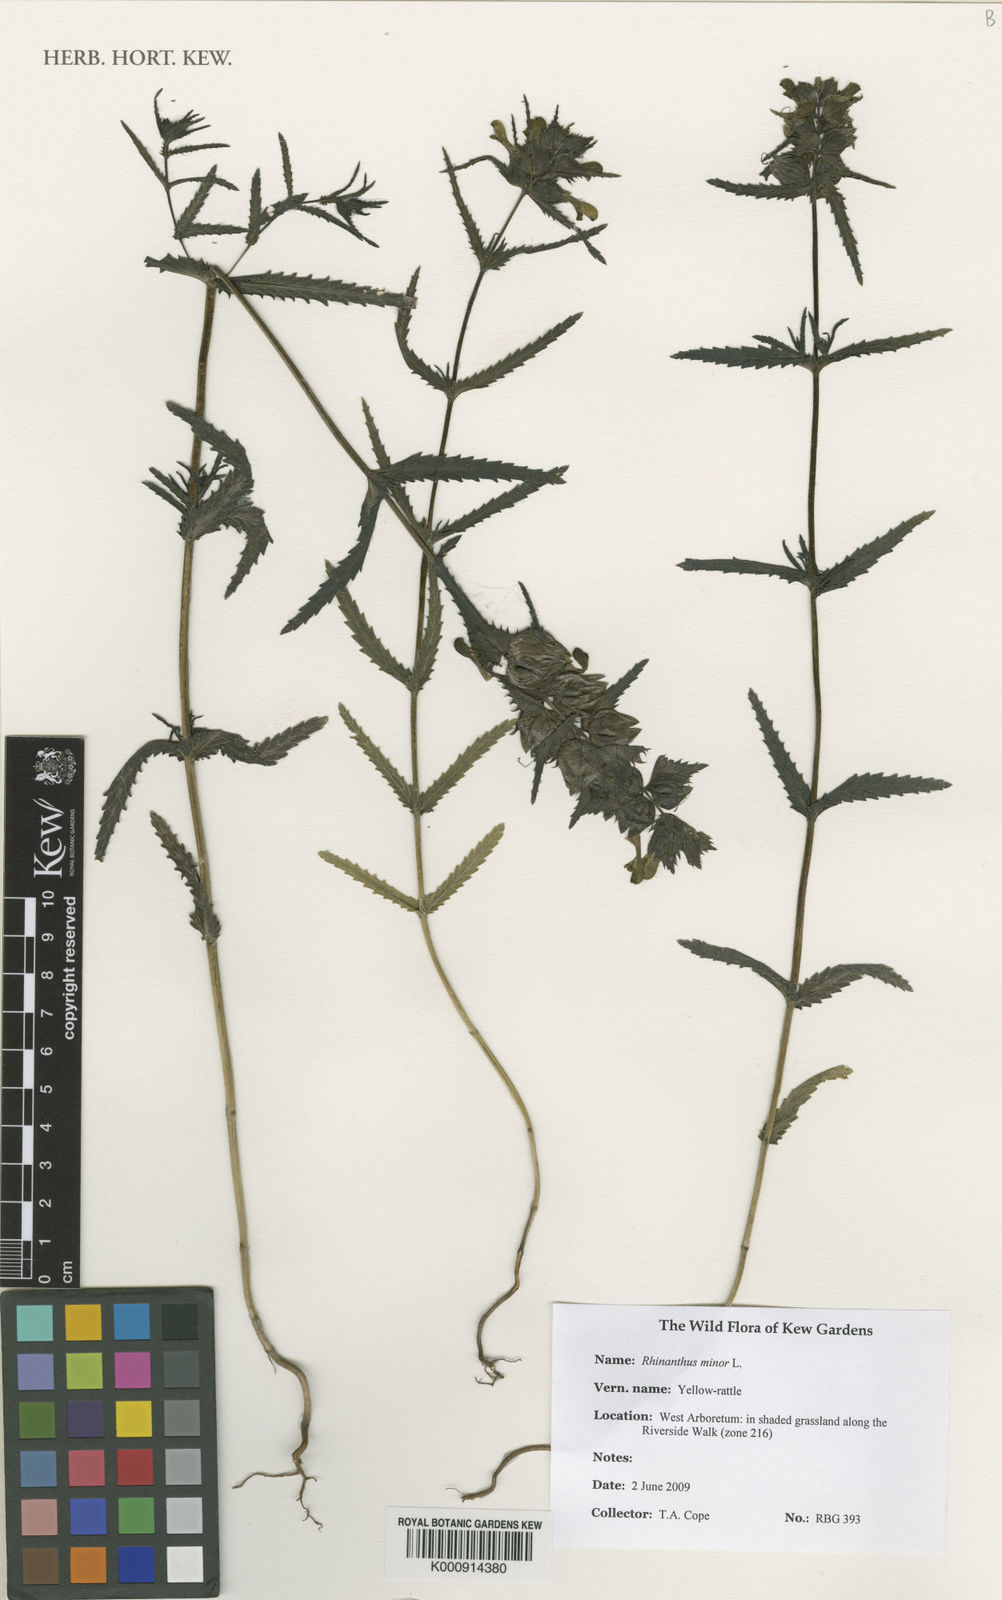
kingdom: Plantae
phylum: Tracheophyta
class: Magnoliopsida
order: Lamiales
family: Orobanchaceae
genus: Rhinanthus
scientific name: Rhinanthus minor
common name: Yellow-rattle
